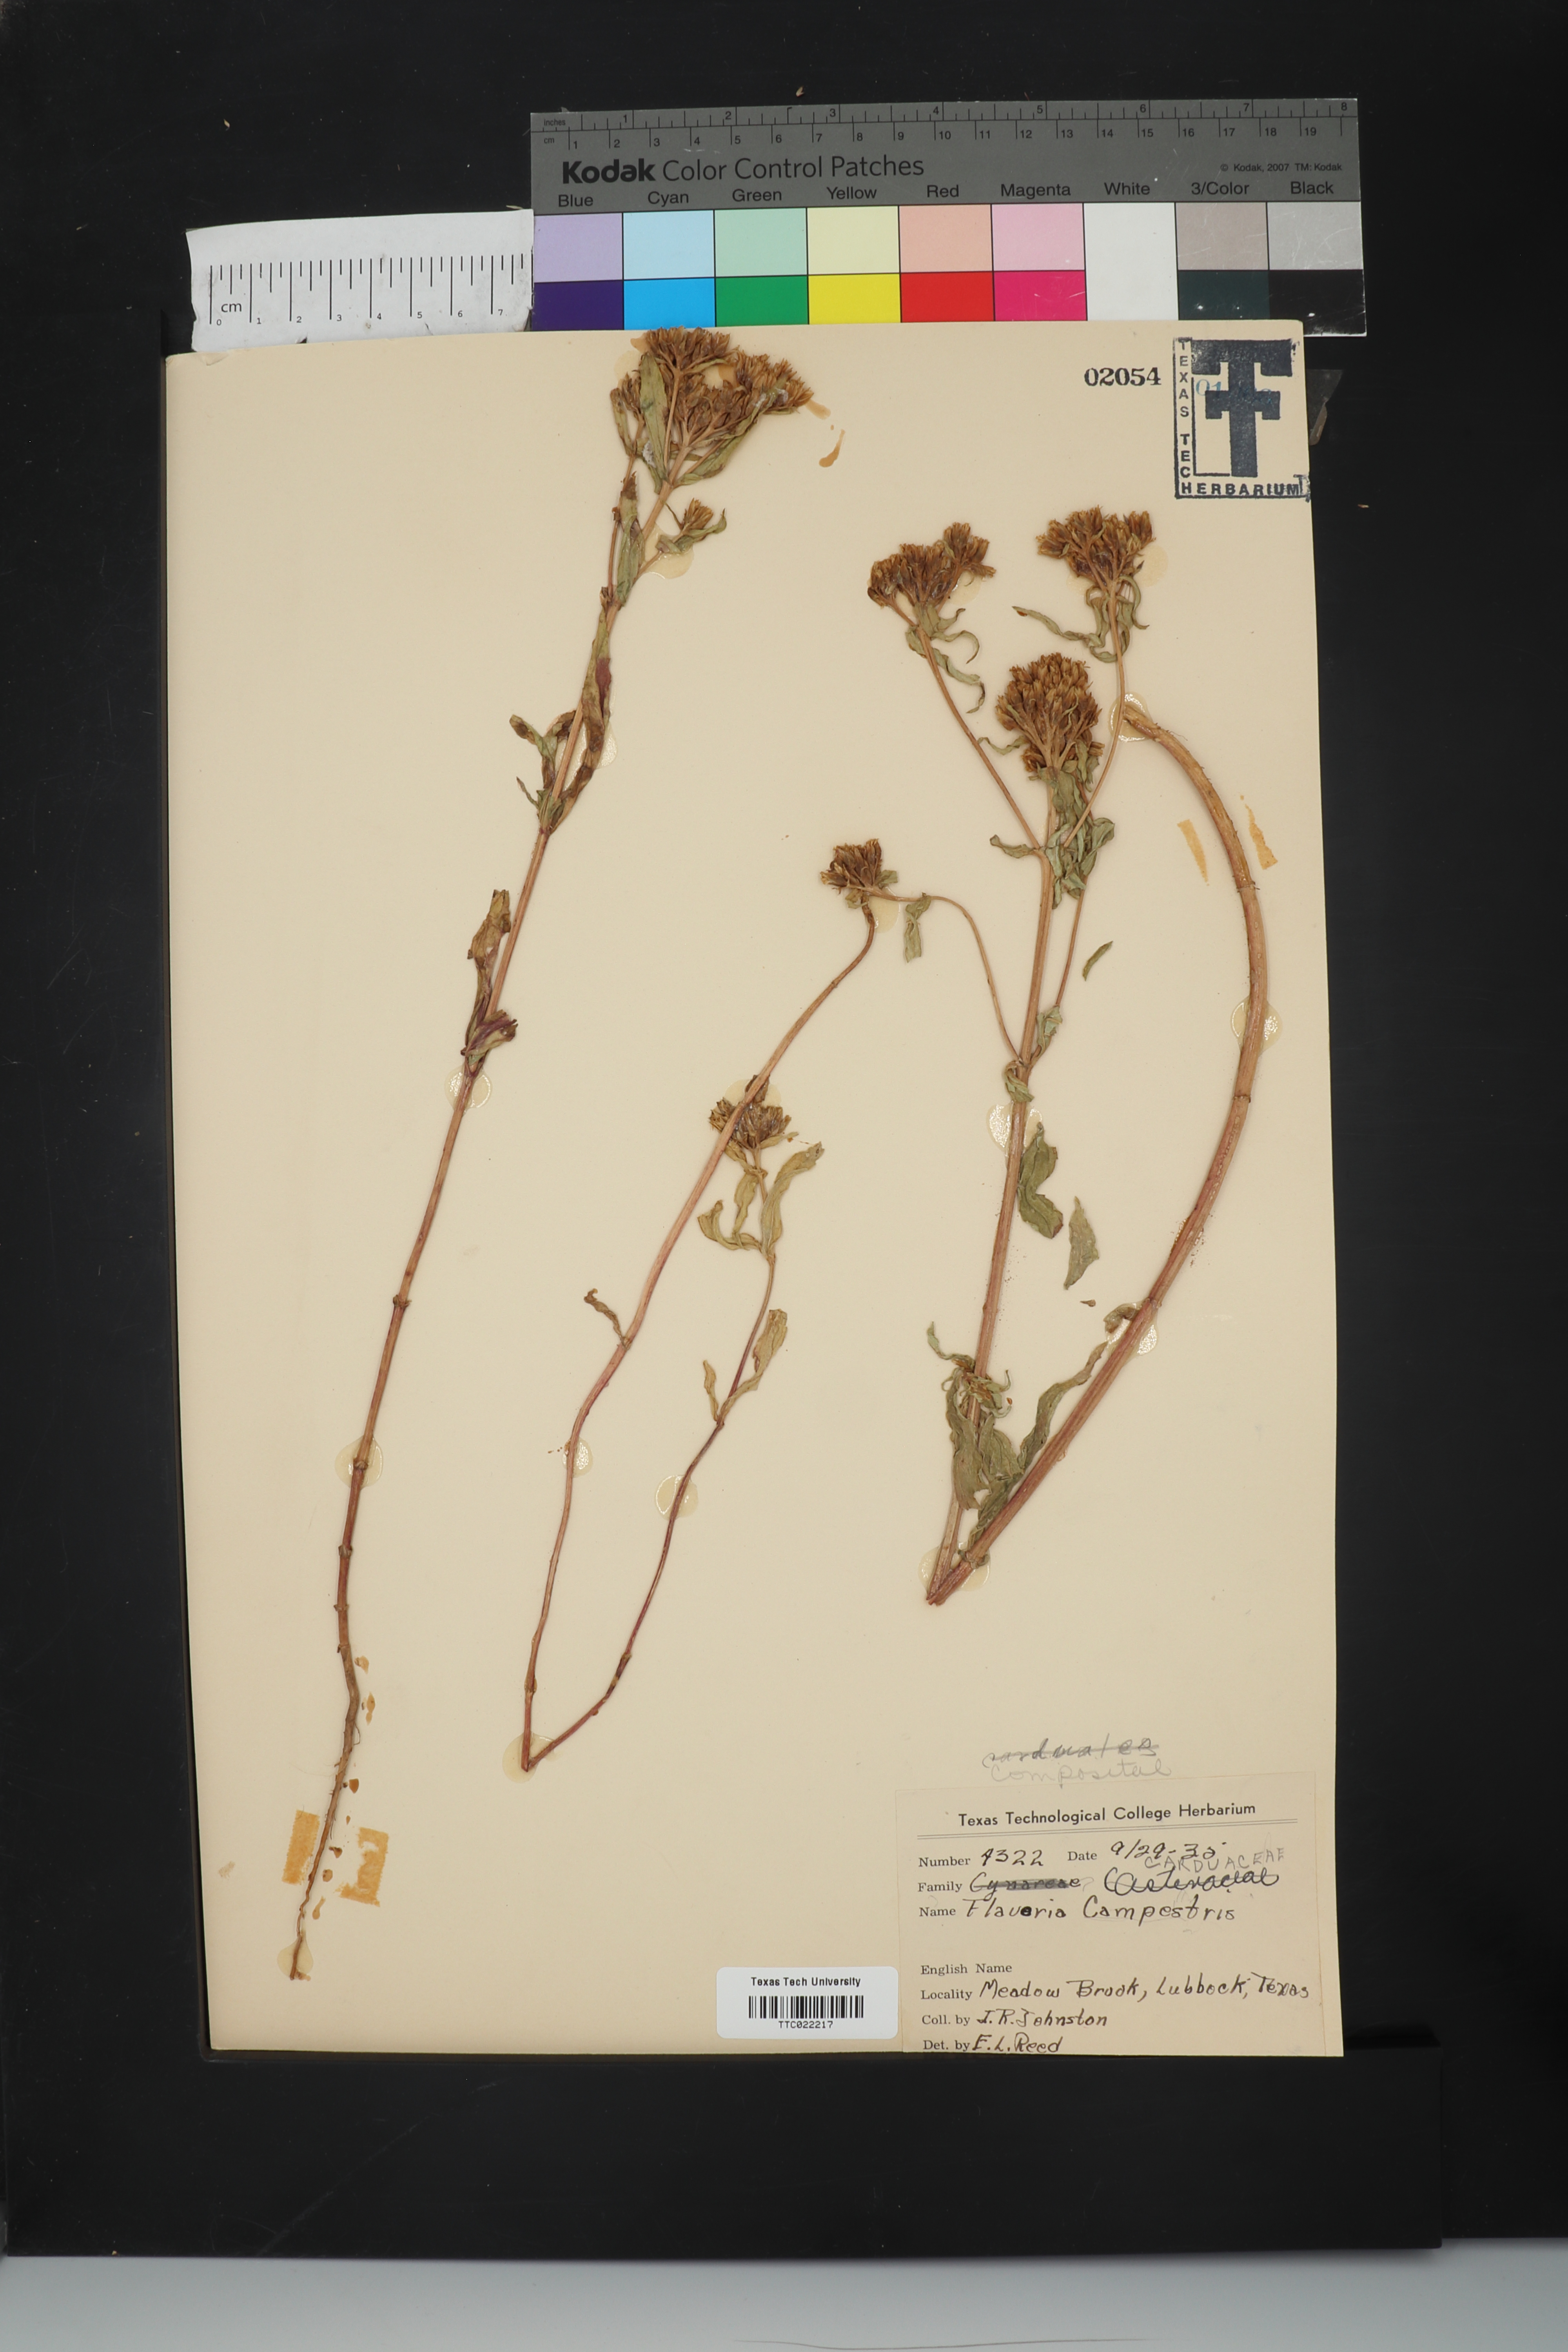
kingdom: Plantae
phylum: Tracheophyta
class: Magnoliopsida
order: Asterales
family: Asteraceae
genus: Flaveria
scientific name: Flaveria campestris
